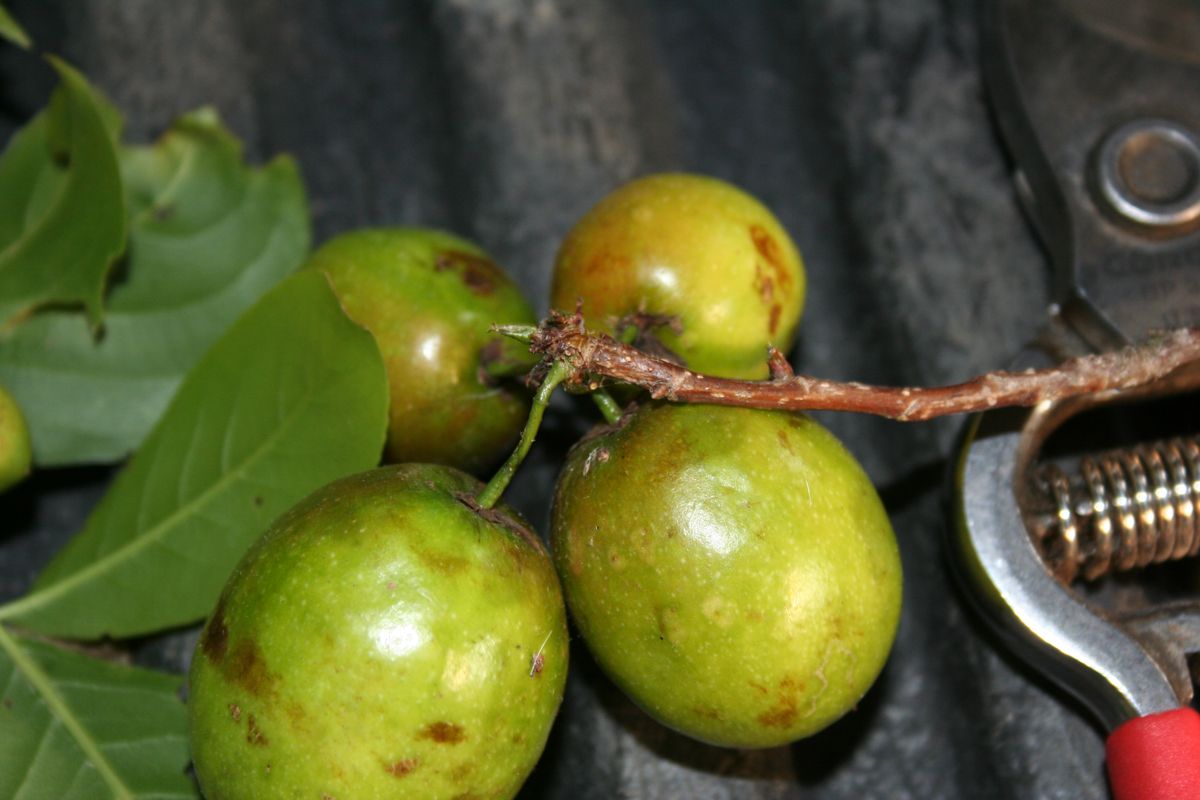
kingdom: Plantae
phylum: Tracheophyta
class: Magnoliopsida
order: Malpighiales
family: Salicaceae
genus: Casearia
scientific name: Casearia sanchezii
